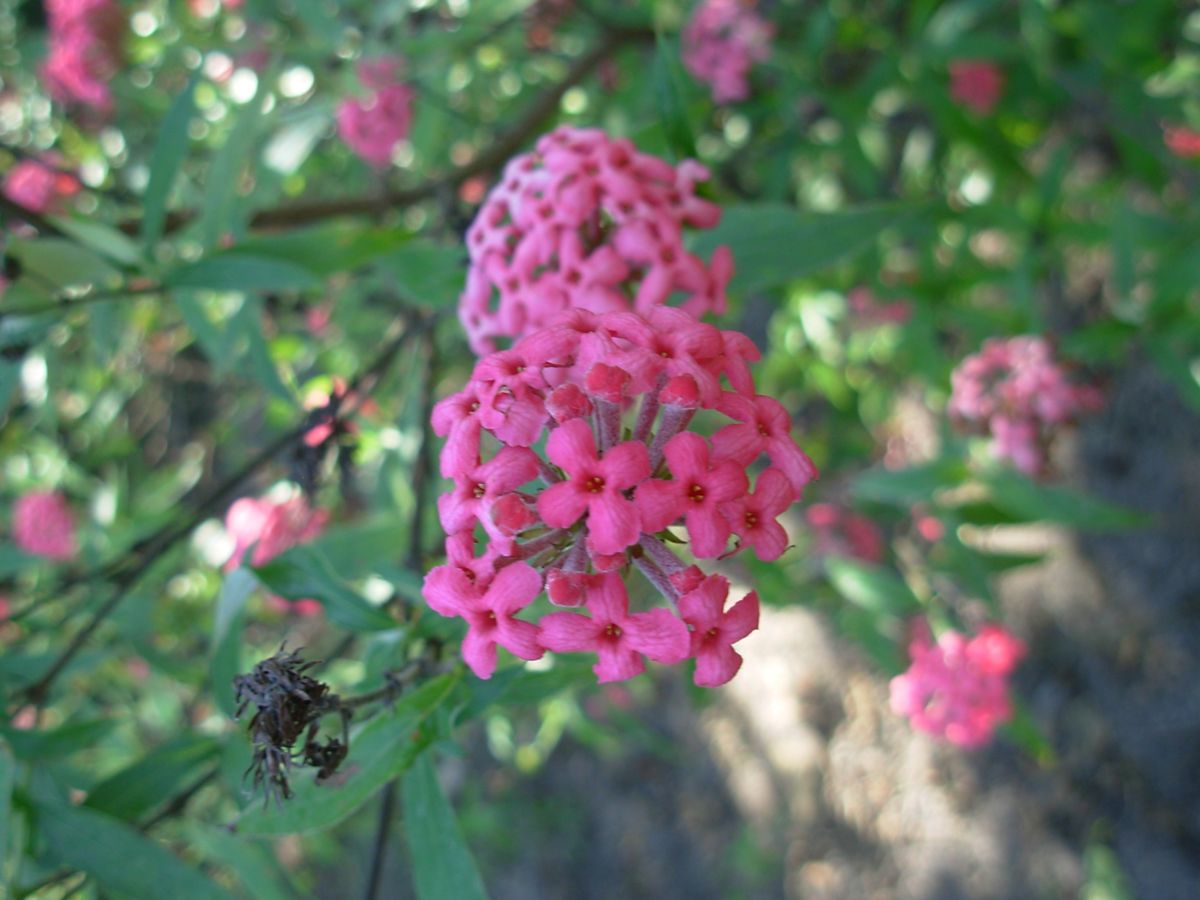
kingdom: Plantae
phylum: Tracheophyta
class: Magnoliopsida
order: Gentianales
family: Rubiaceae
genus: Arachnothryx
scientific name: Arachnothryx leucophylla
